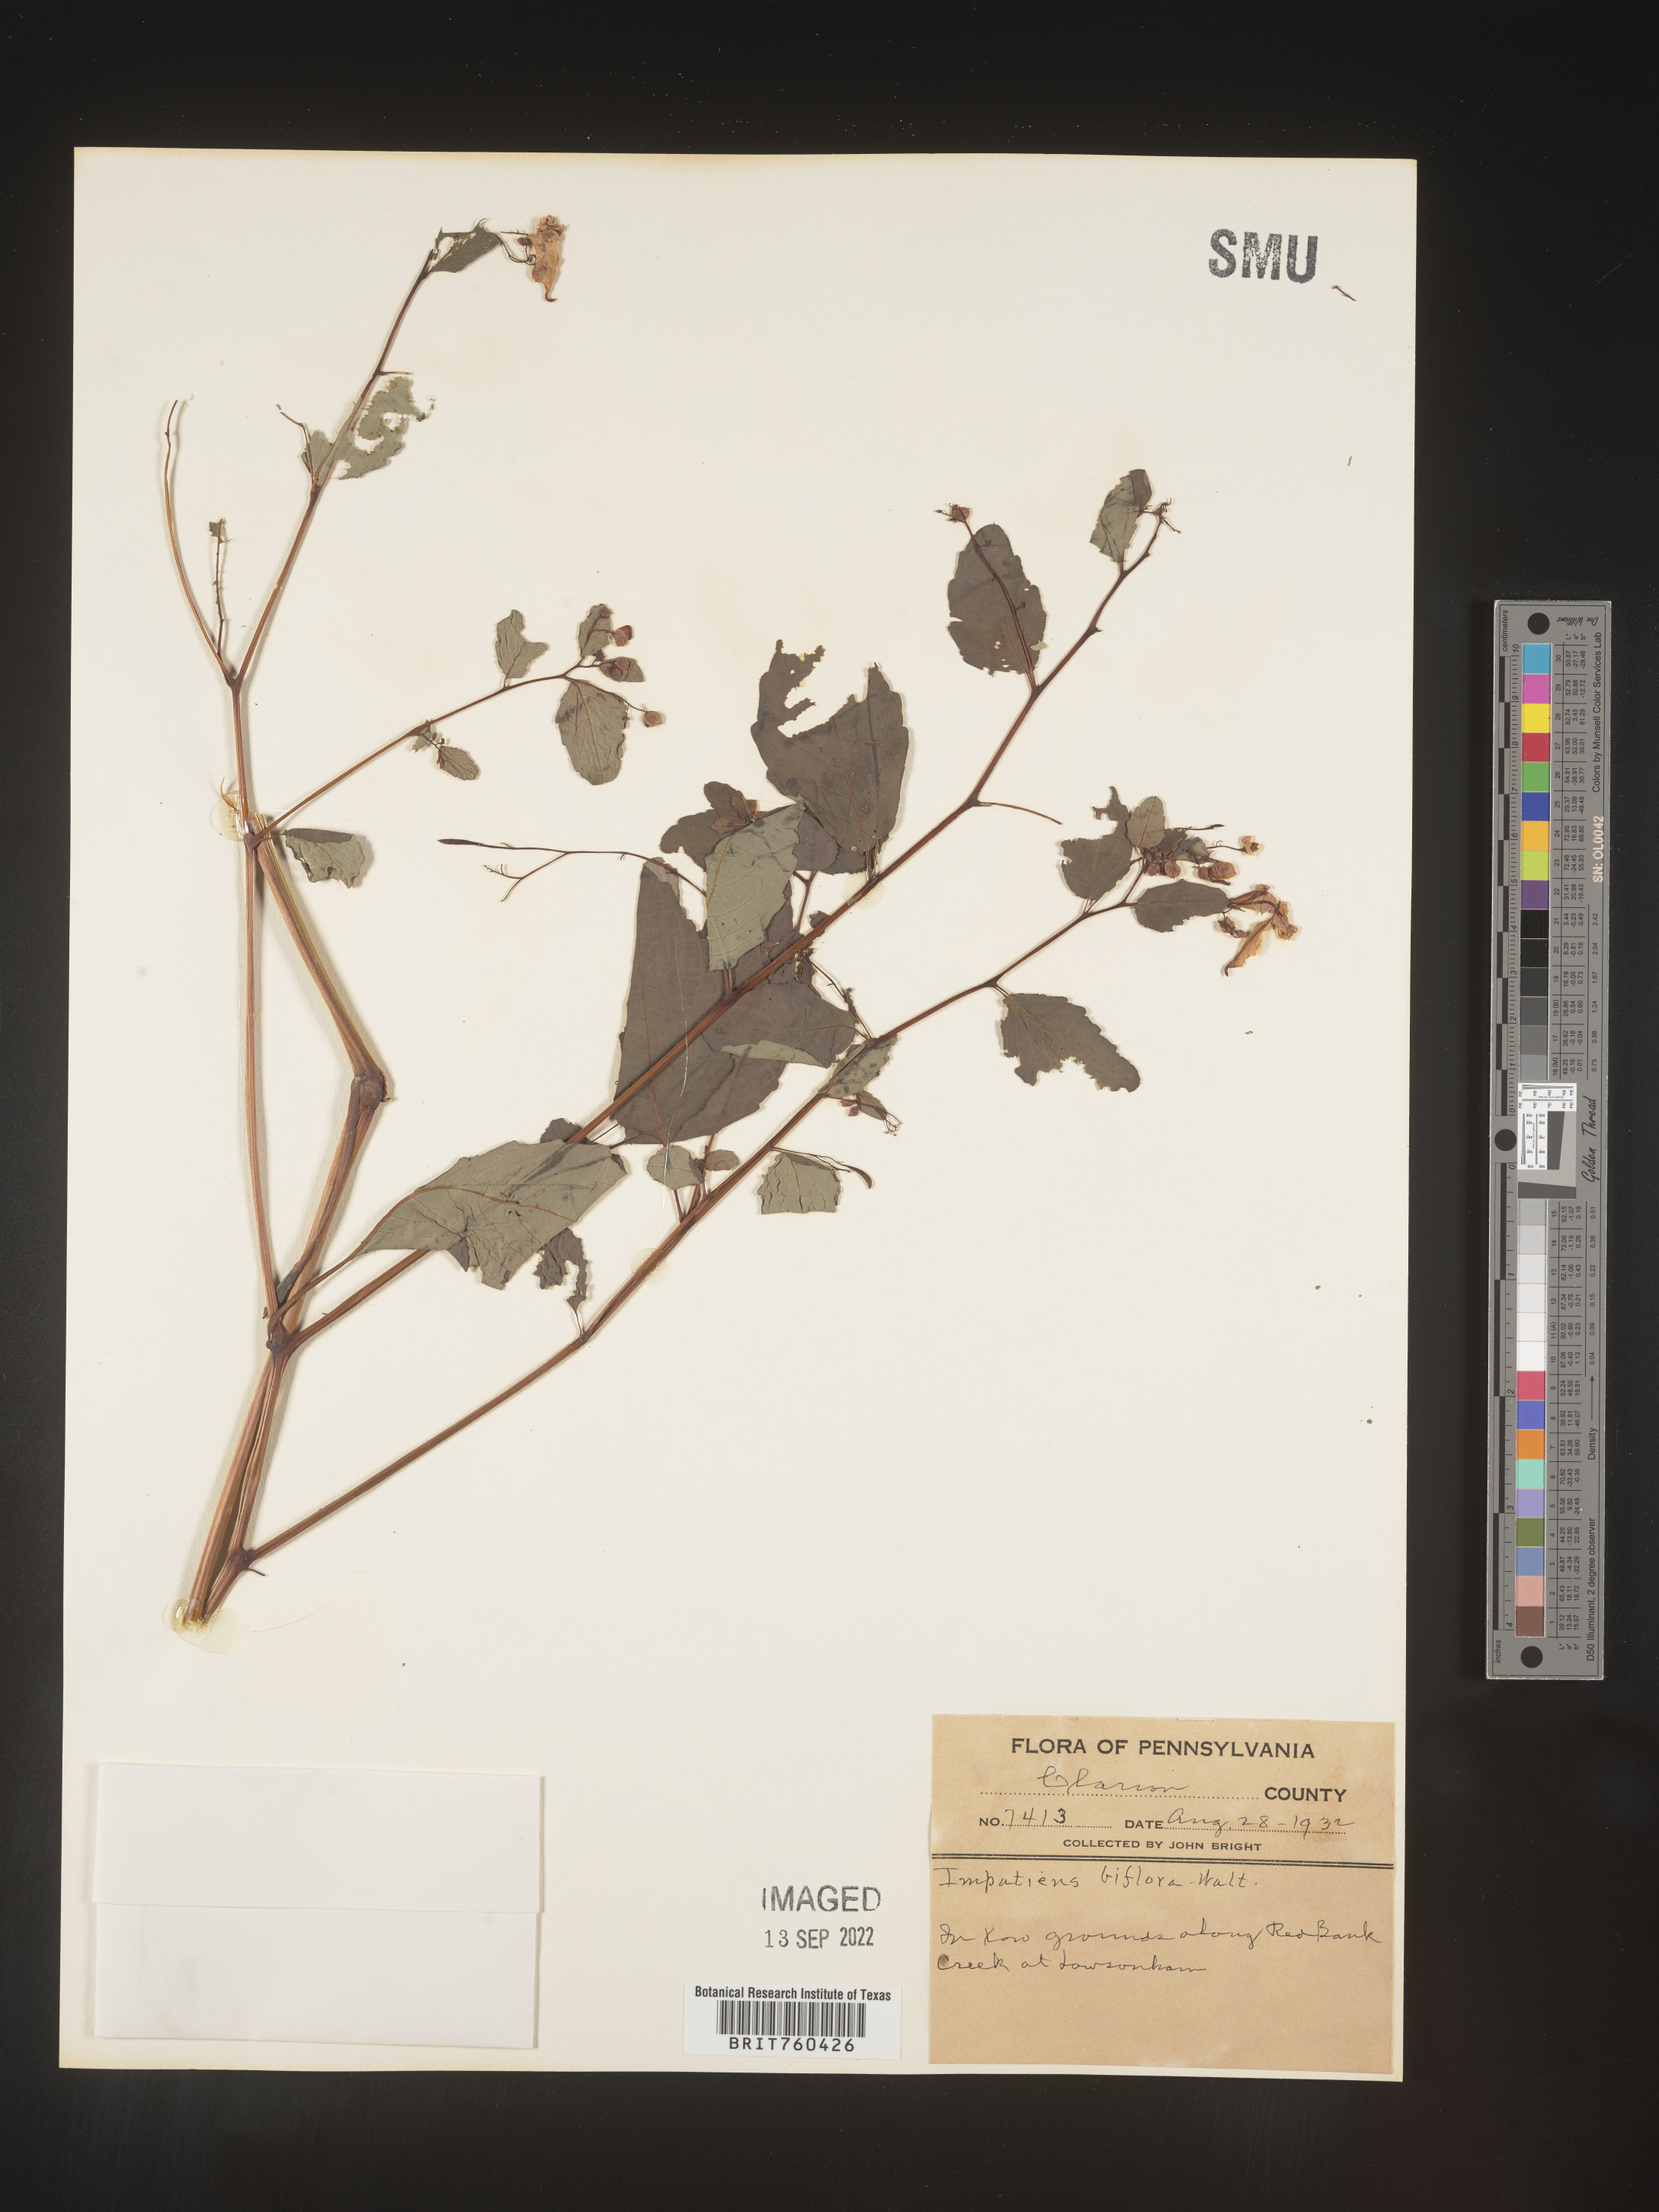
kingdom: Plantae
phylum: Tracheophyta
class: Magnoliopsida
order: Ericales
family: Balsaminaceae
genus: Impatiens
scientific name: Impatiens capensis
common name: Orange balsam
